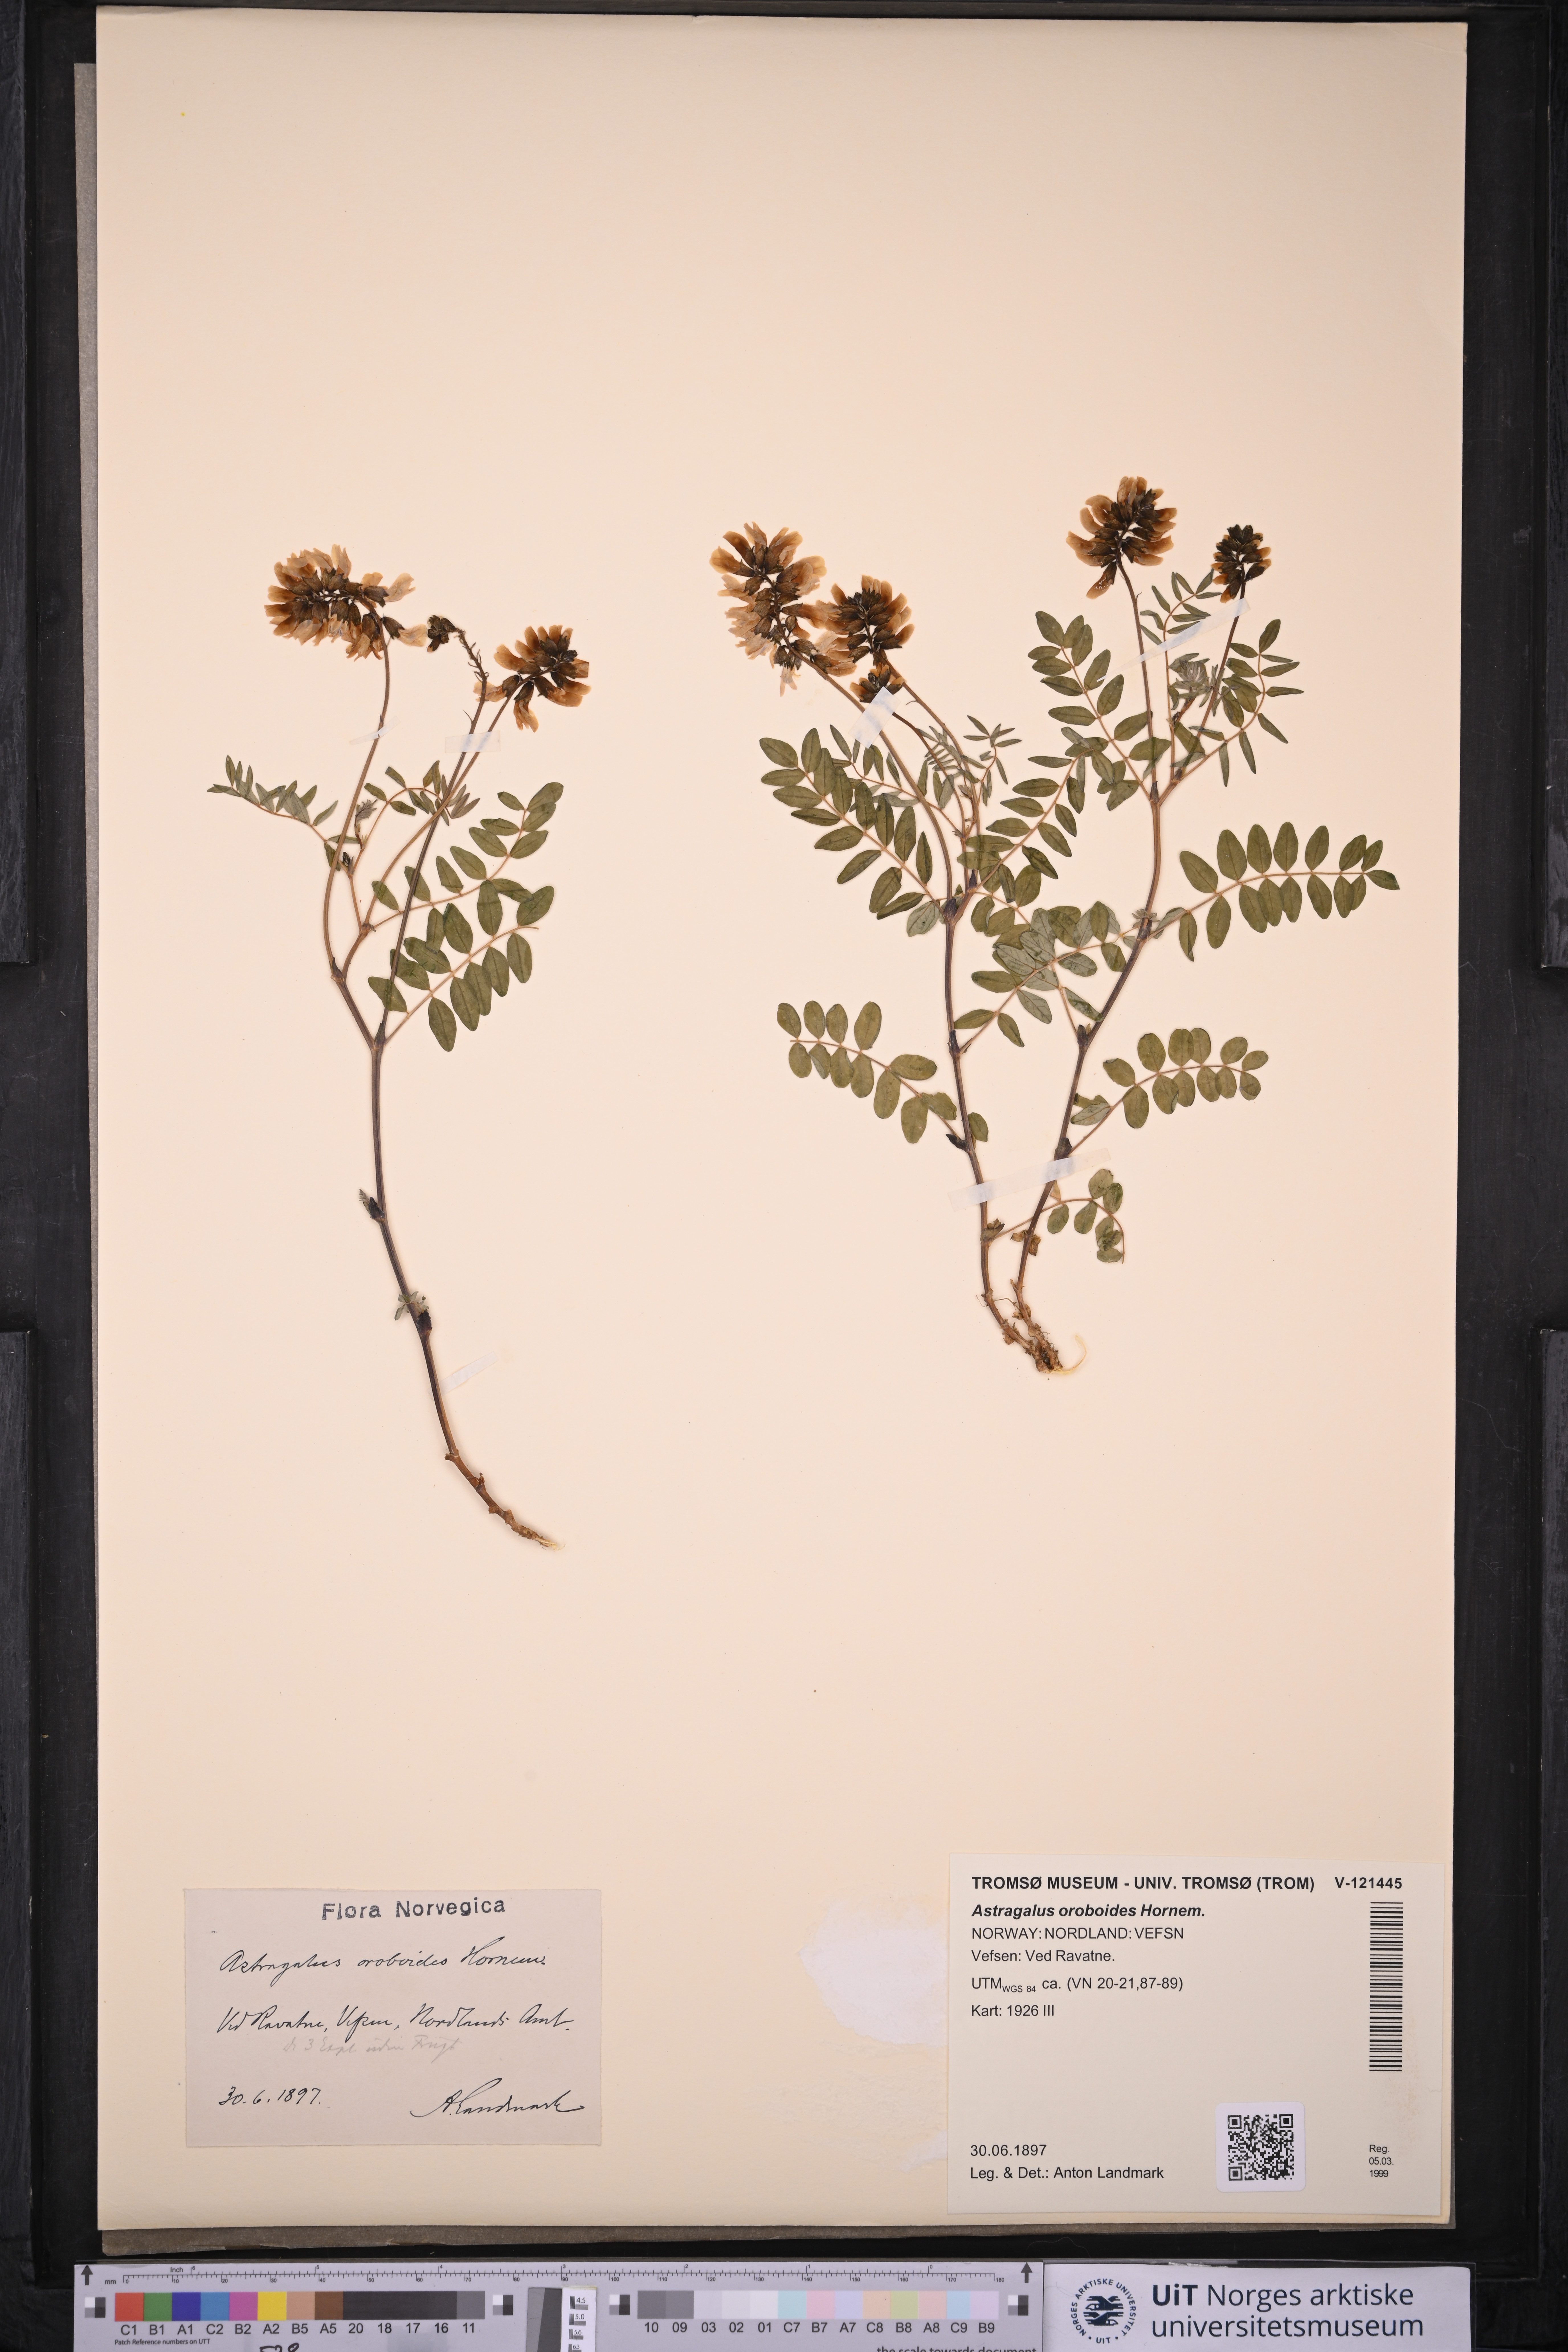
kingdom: Plantae
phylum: Tracheophyta
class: Magnoliopsida
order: Fabales
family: Fabaceae
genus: Astragalus
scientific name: Astragalus norvegicus
